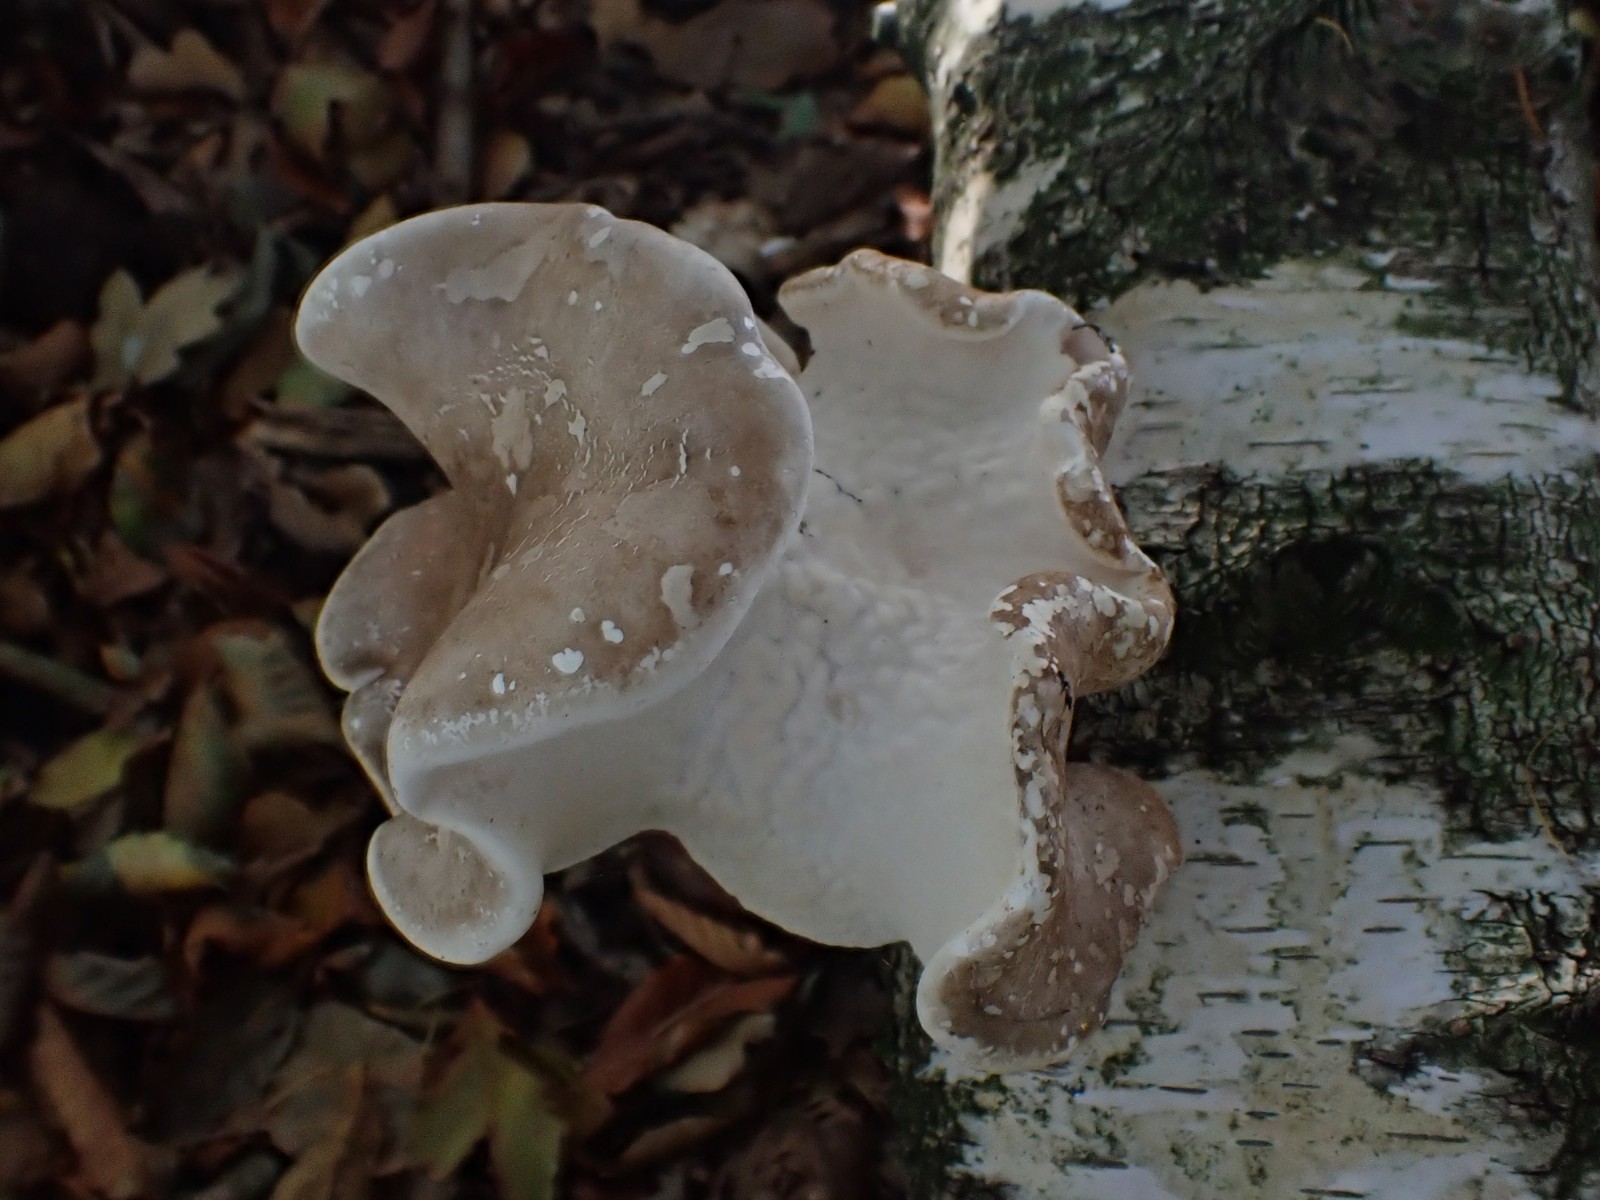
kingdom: Fungi
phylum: Basidiomycota
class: Agaricomycetes
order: Polyporales
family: Fomitopsidaceae
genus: Fomitopsis
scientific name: Fomitopsis betulina
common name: birkeporesvamp
